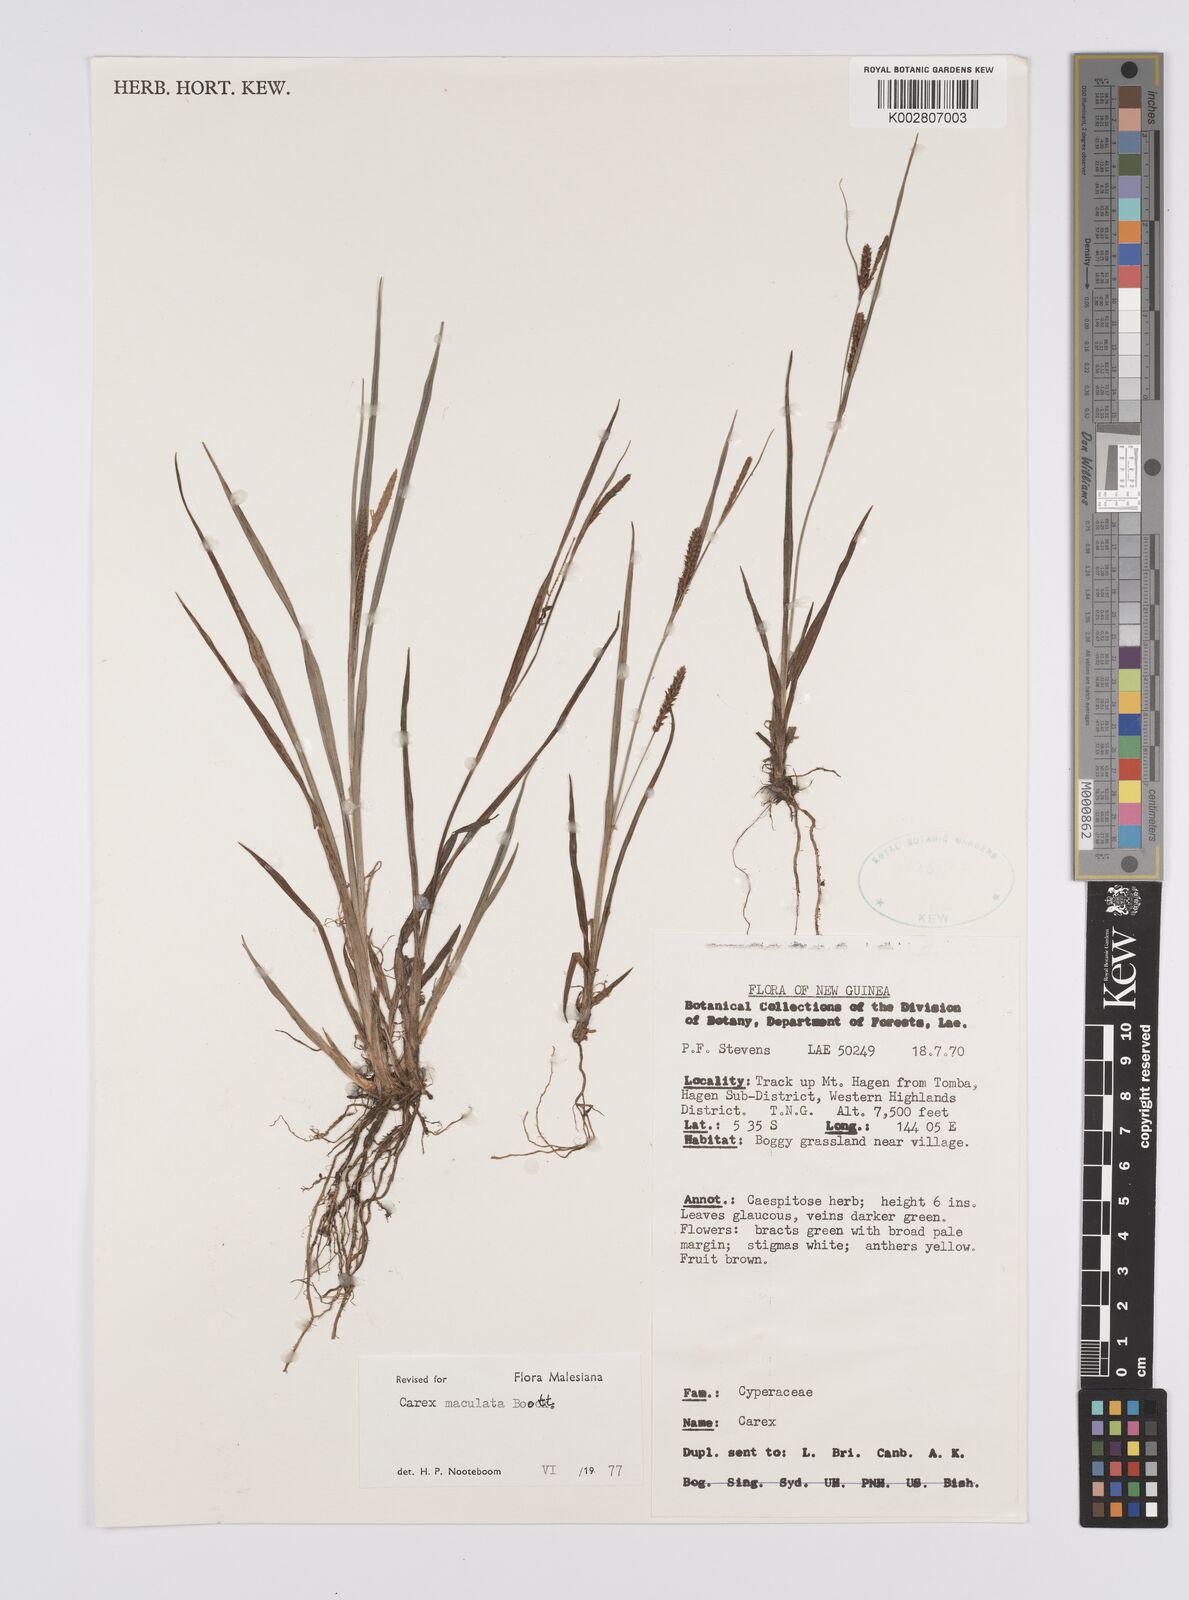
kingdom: Plantae
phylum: Tracheophyta
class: Liliopsida
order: Poales
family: Cyperaceae
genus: Carex
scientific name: Carex maculata
